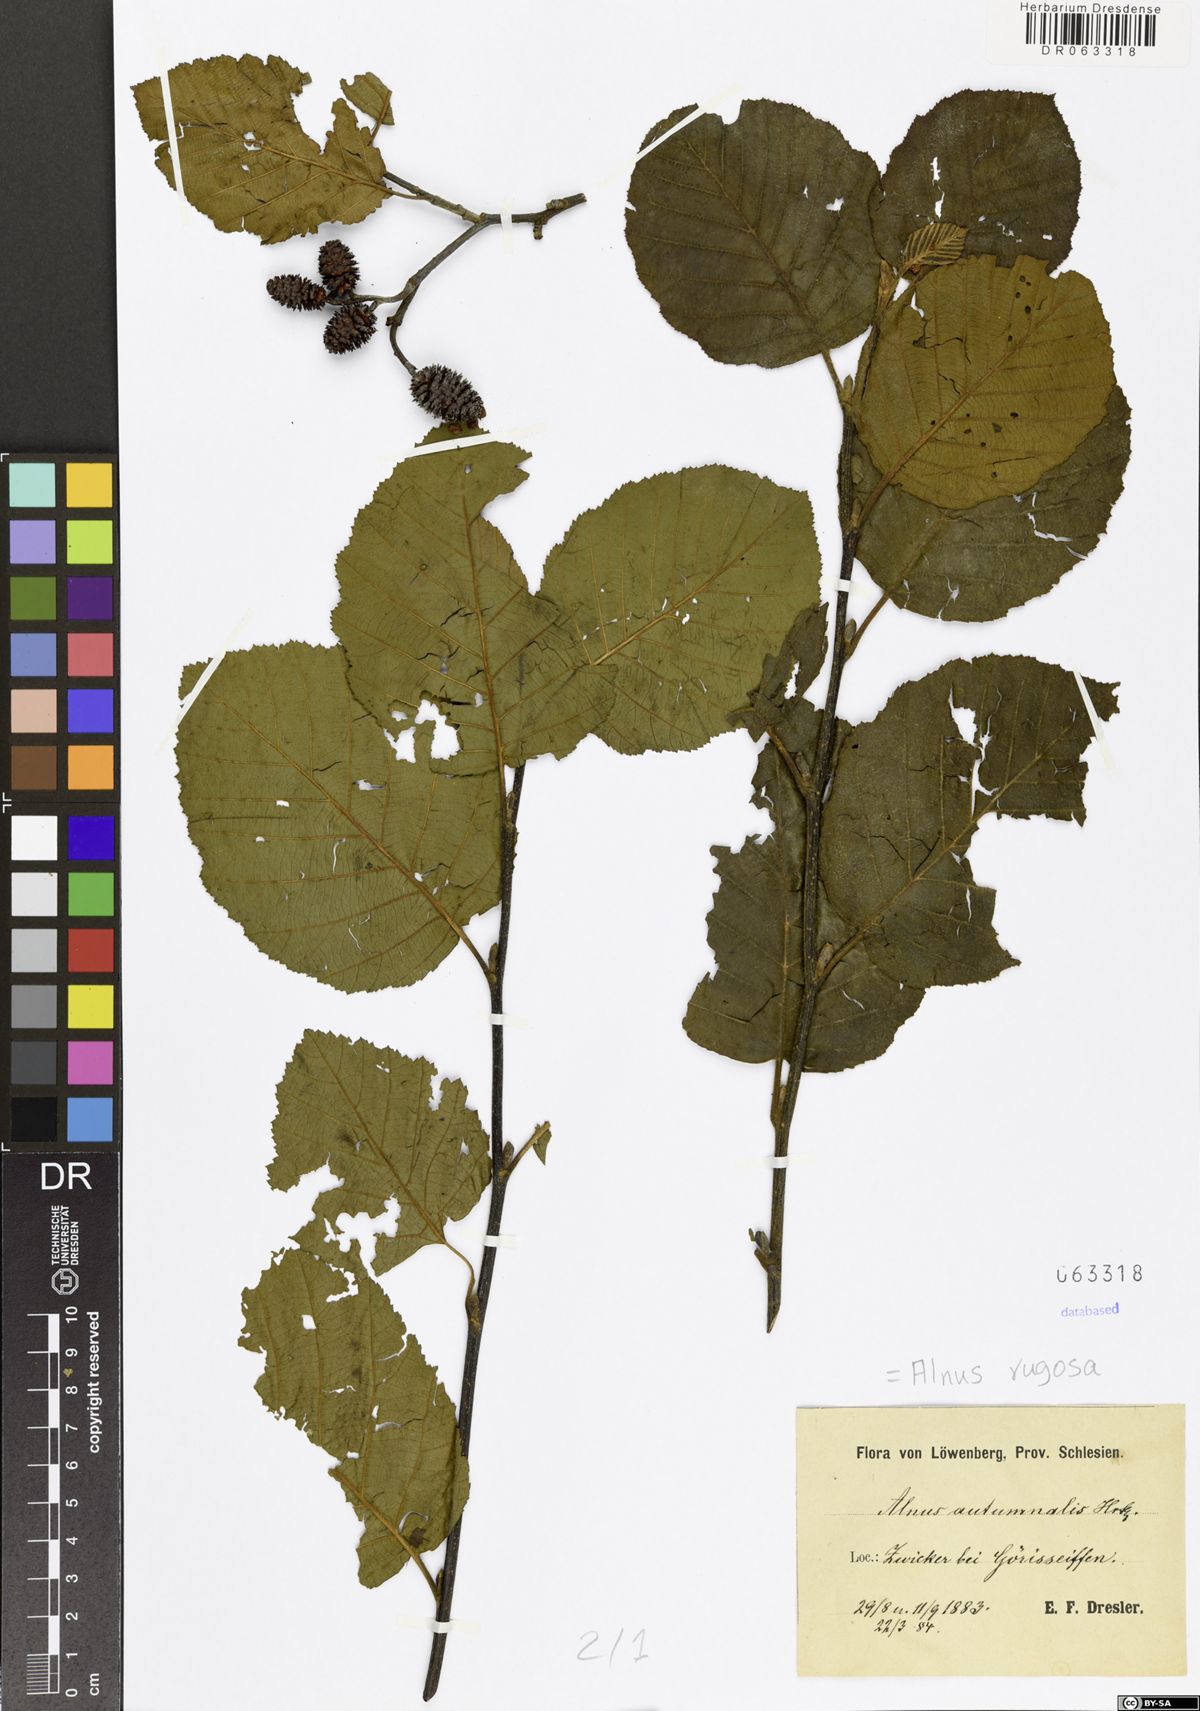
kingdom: Plantae
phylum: Tracheophyta
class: Magnoliopsida
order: Fagales
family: Betulaceae
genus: Alnus
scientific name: Alnus incana
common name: Grey alder
